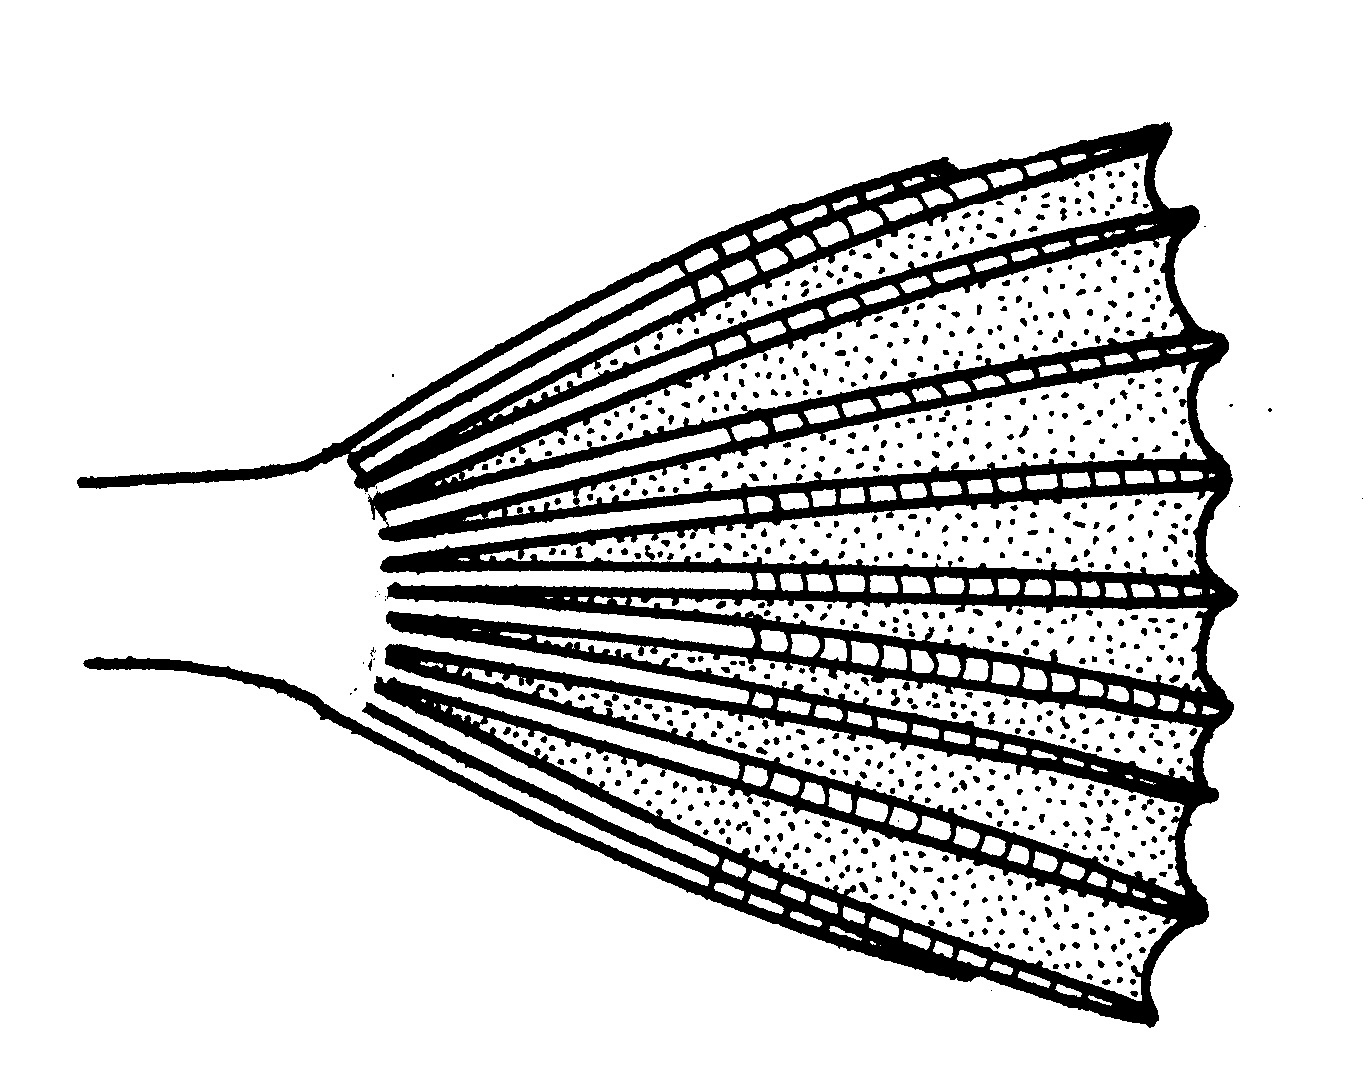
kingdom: Animalia
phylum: Chordata
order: Perciformes
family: Clinidae
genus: Fucomimus
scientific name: Fucomimus
